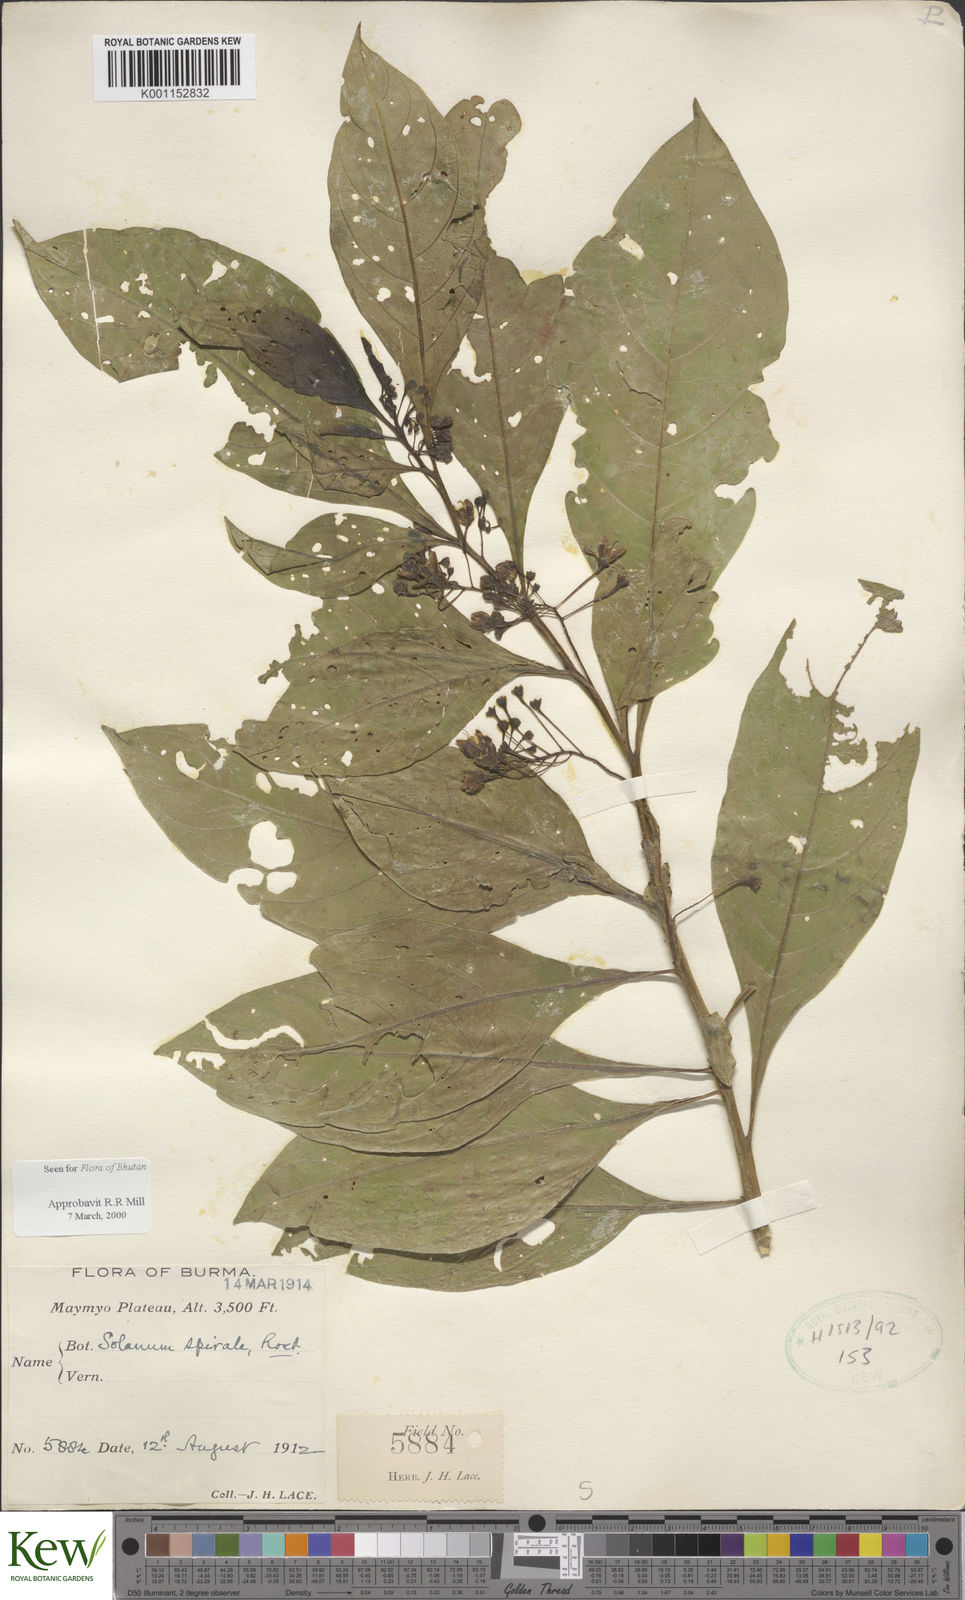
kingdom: Plantae
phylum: Tracheophyta
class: Magnoliopsida
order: Solanales
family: Solanaceae
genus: Solanum
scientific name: Solanum spirale
